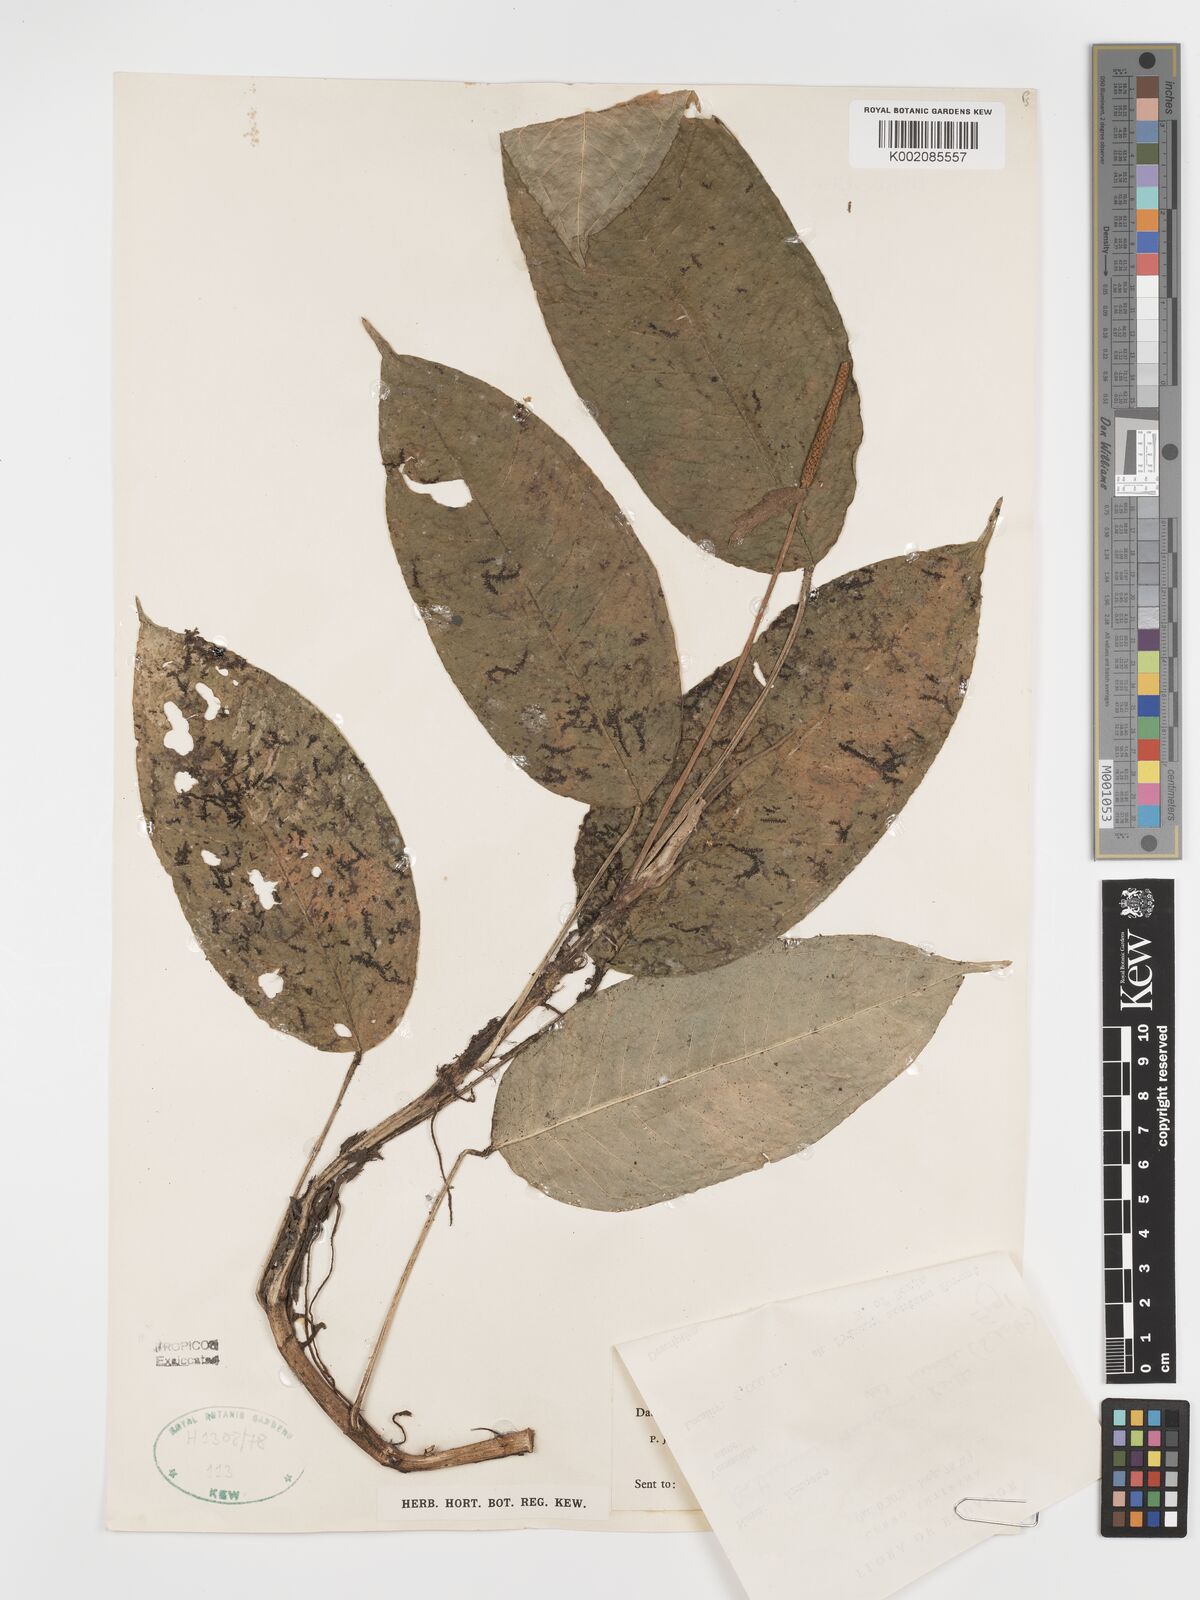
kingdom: Plantae
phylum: Tracheophyta
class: Liliopsida
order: Alismatales
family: Araceae
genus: Anthurium
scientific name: Anthurium amoenum
